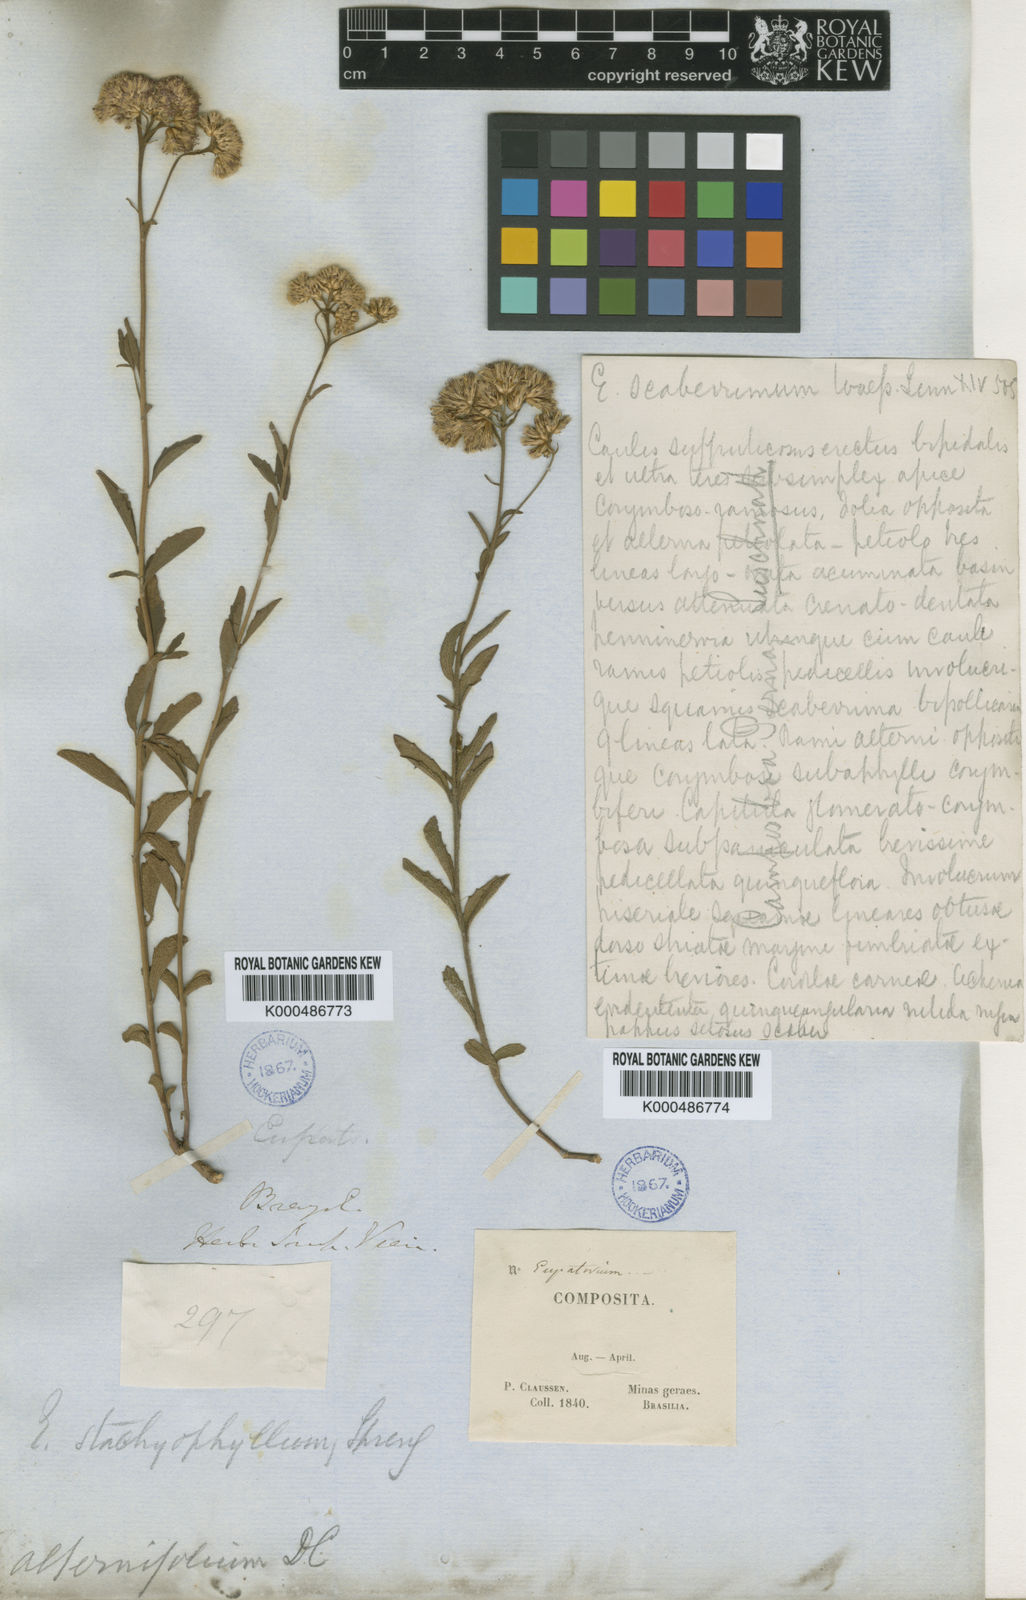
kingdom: Plantae
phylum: Tracheophyta
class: Magnoliopsida
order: Asterales
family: Asteraceae
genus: Chromolaena
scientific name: Chromolaena stachyophylla
